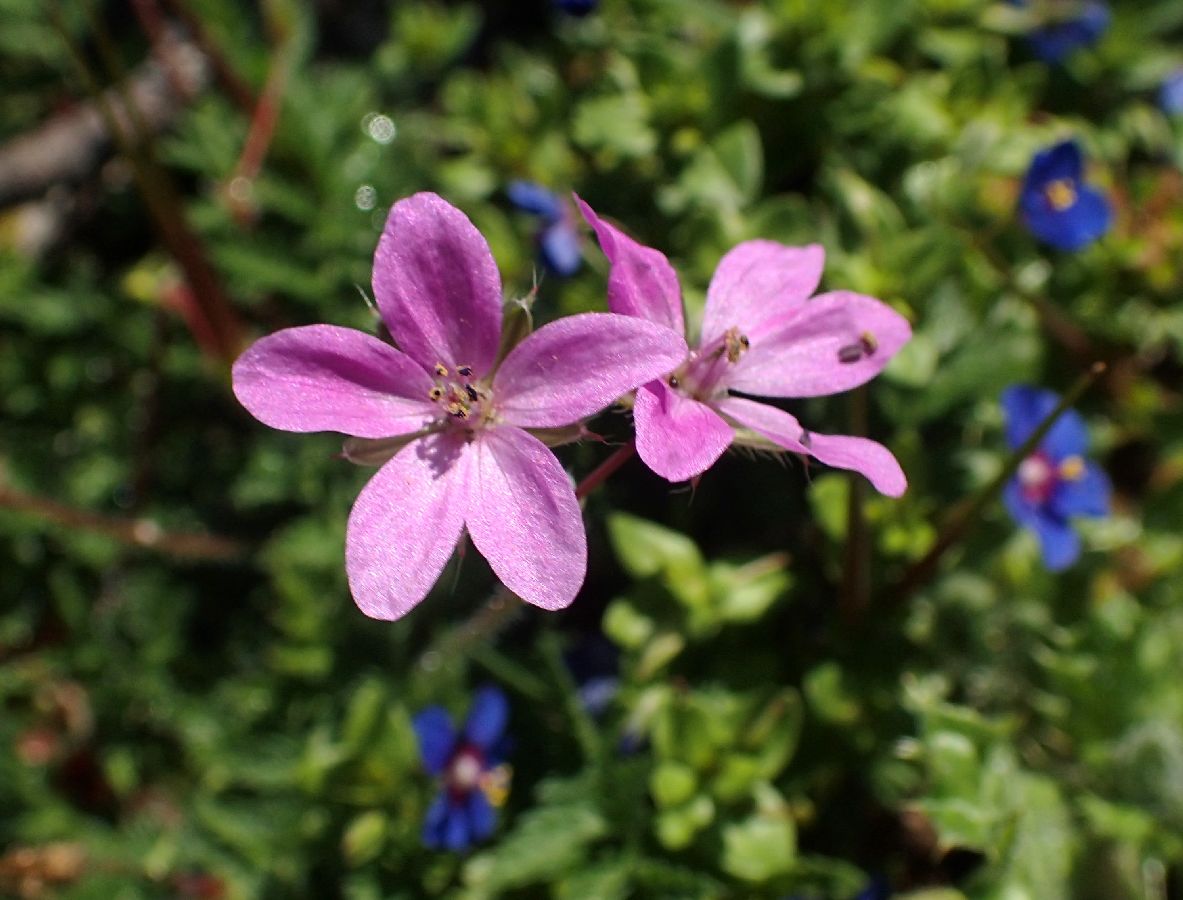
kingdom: Plantae
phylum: Tracheophyta
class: Magnoliopsida
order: Geraniales
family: Geraniaceae
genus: Erodium
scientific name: Erodium malacoides
